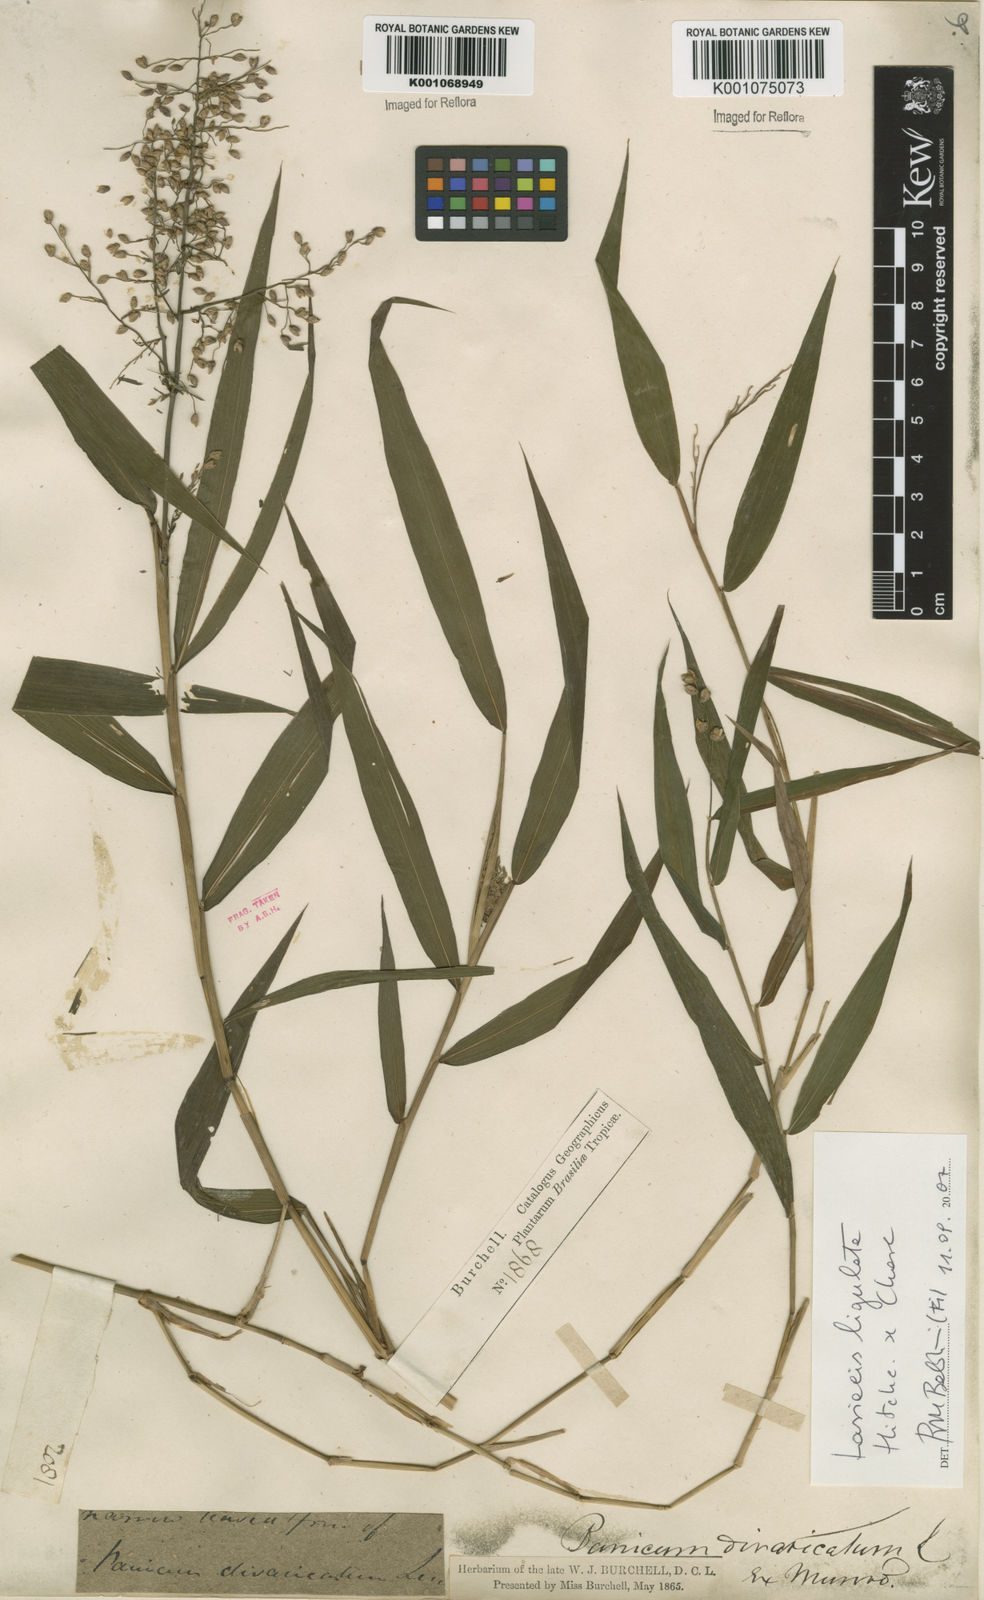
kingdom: Plantae
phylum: Tracheophyta
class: Liliopsida
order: Poales
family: Poaceae
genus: Lasiacis
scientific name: Lasiacis ligulata
